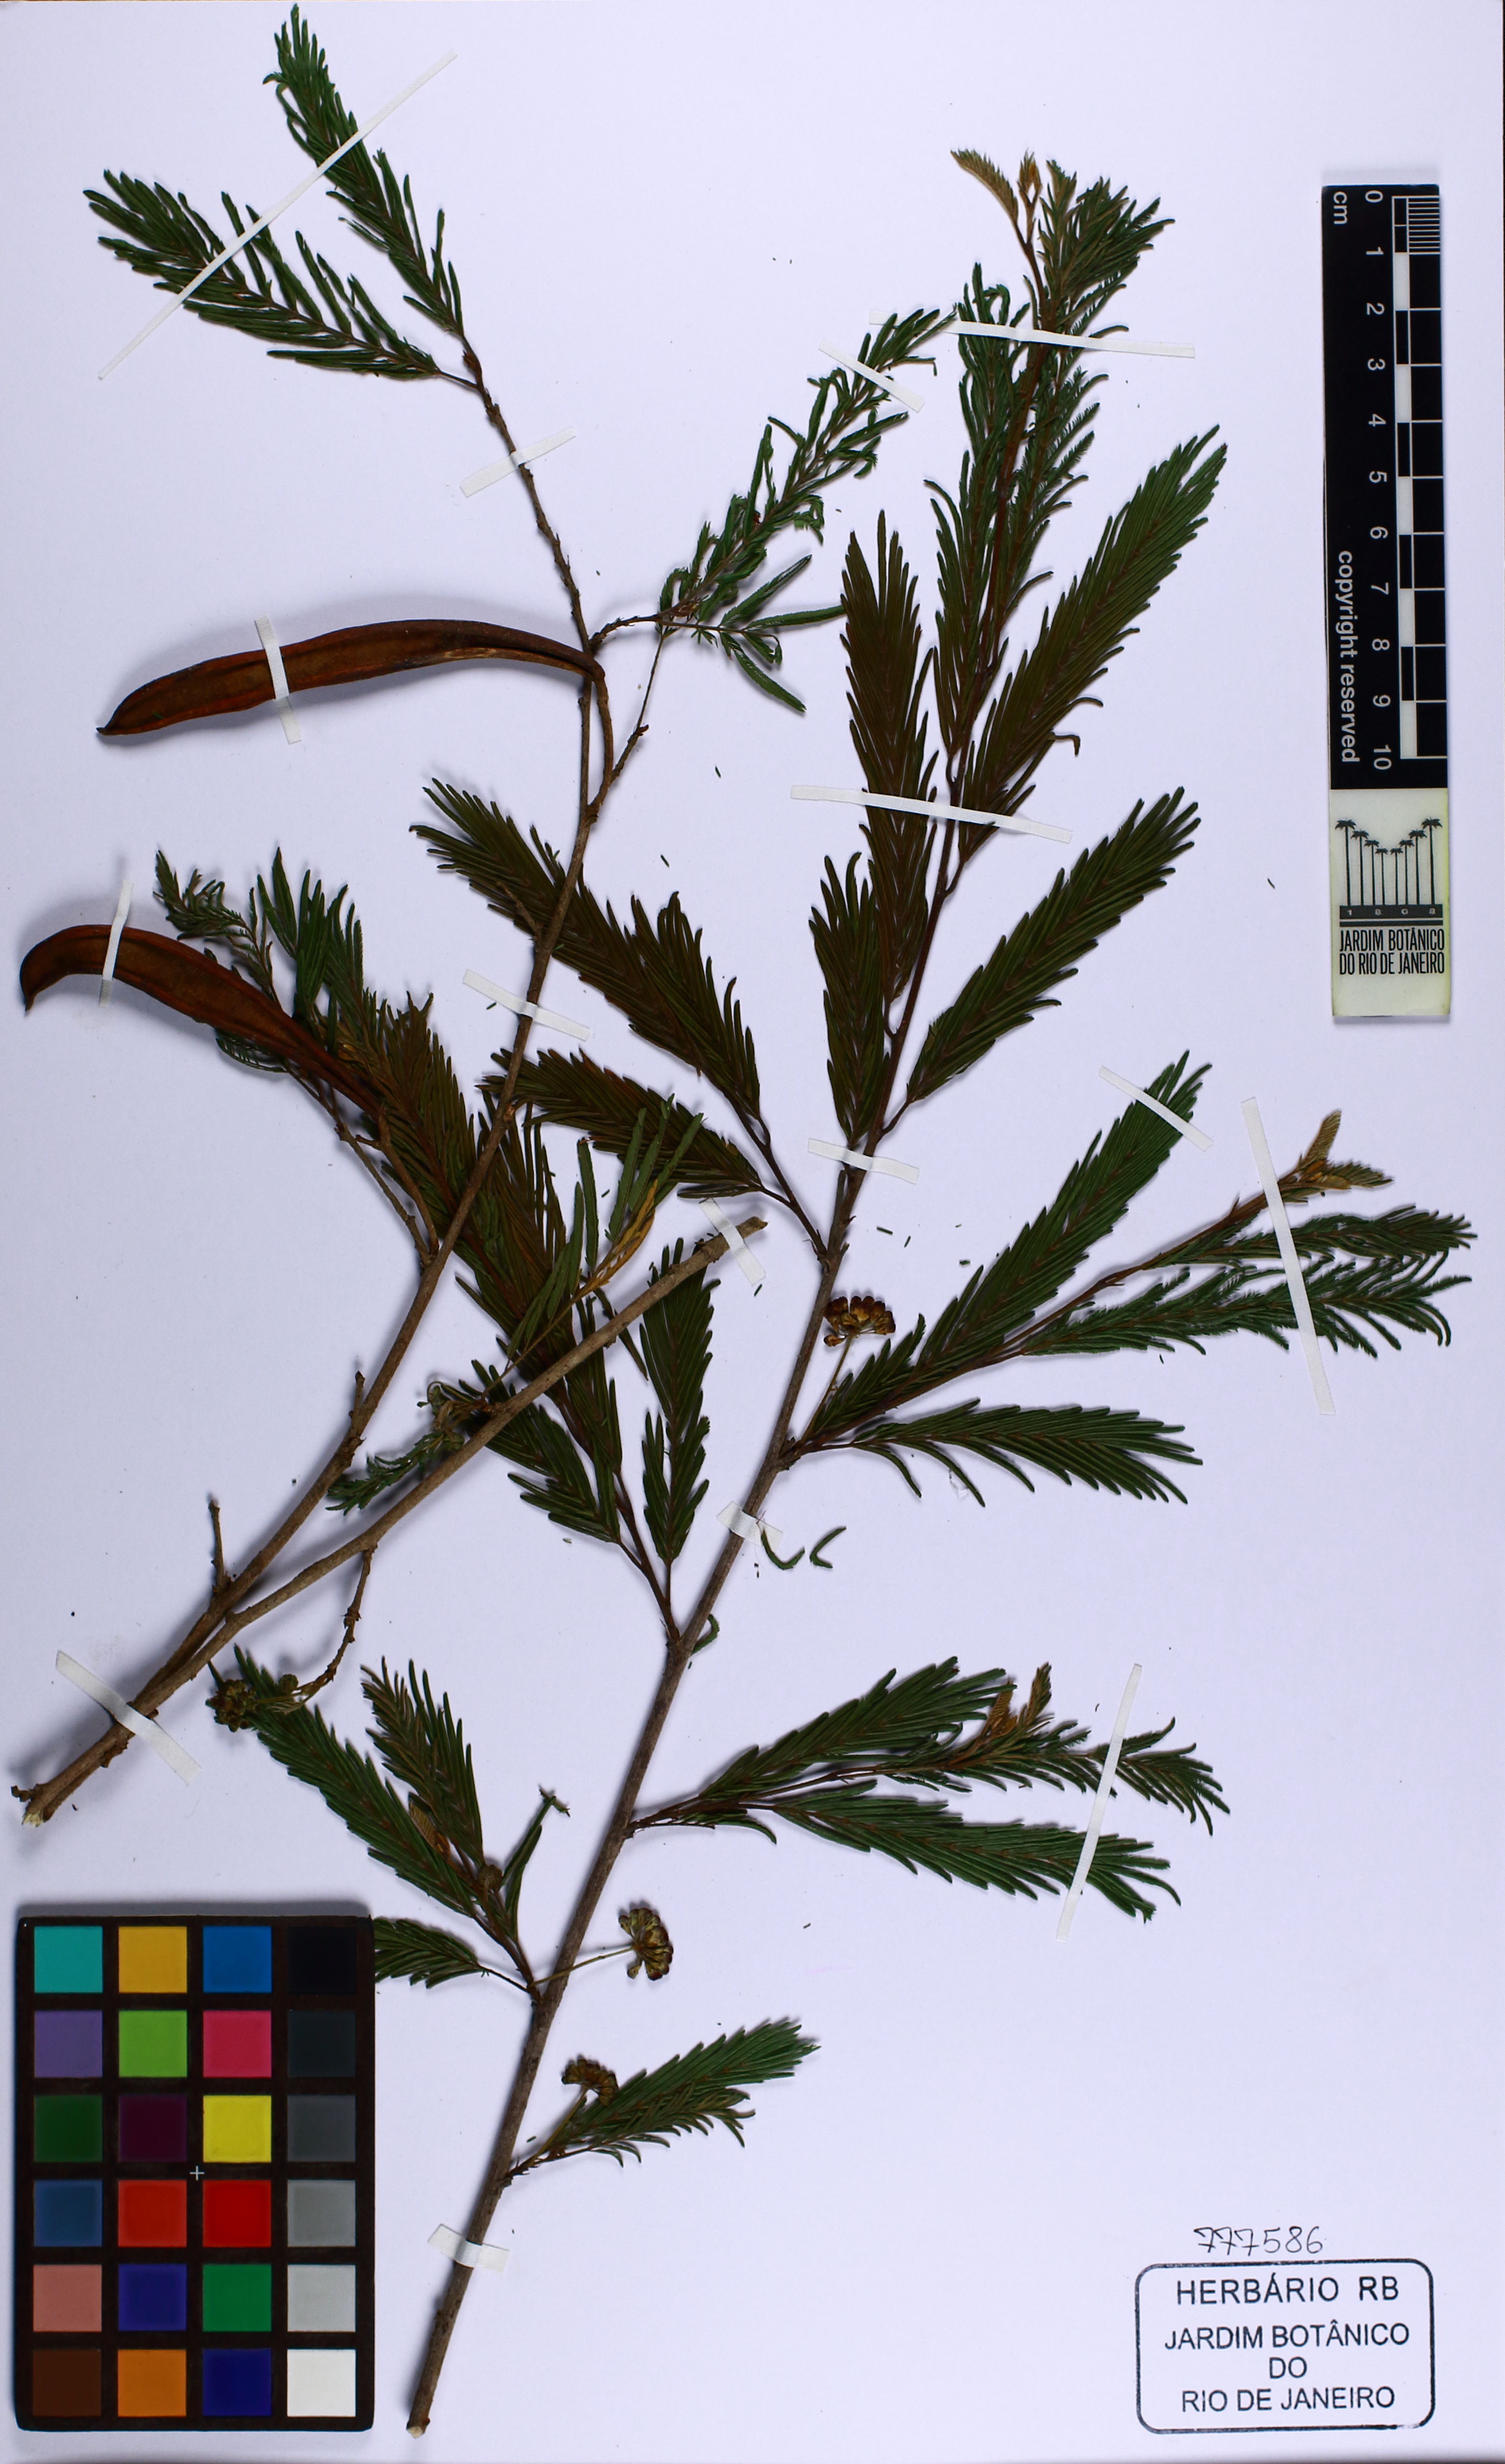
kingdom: Plantae
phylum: Tracheophyta
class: Magnoliopsida
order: Fabales
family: Fabaceae
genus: Calliandra
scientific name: Calliandra parvifolia
